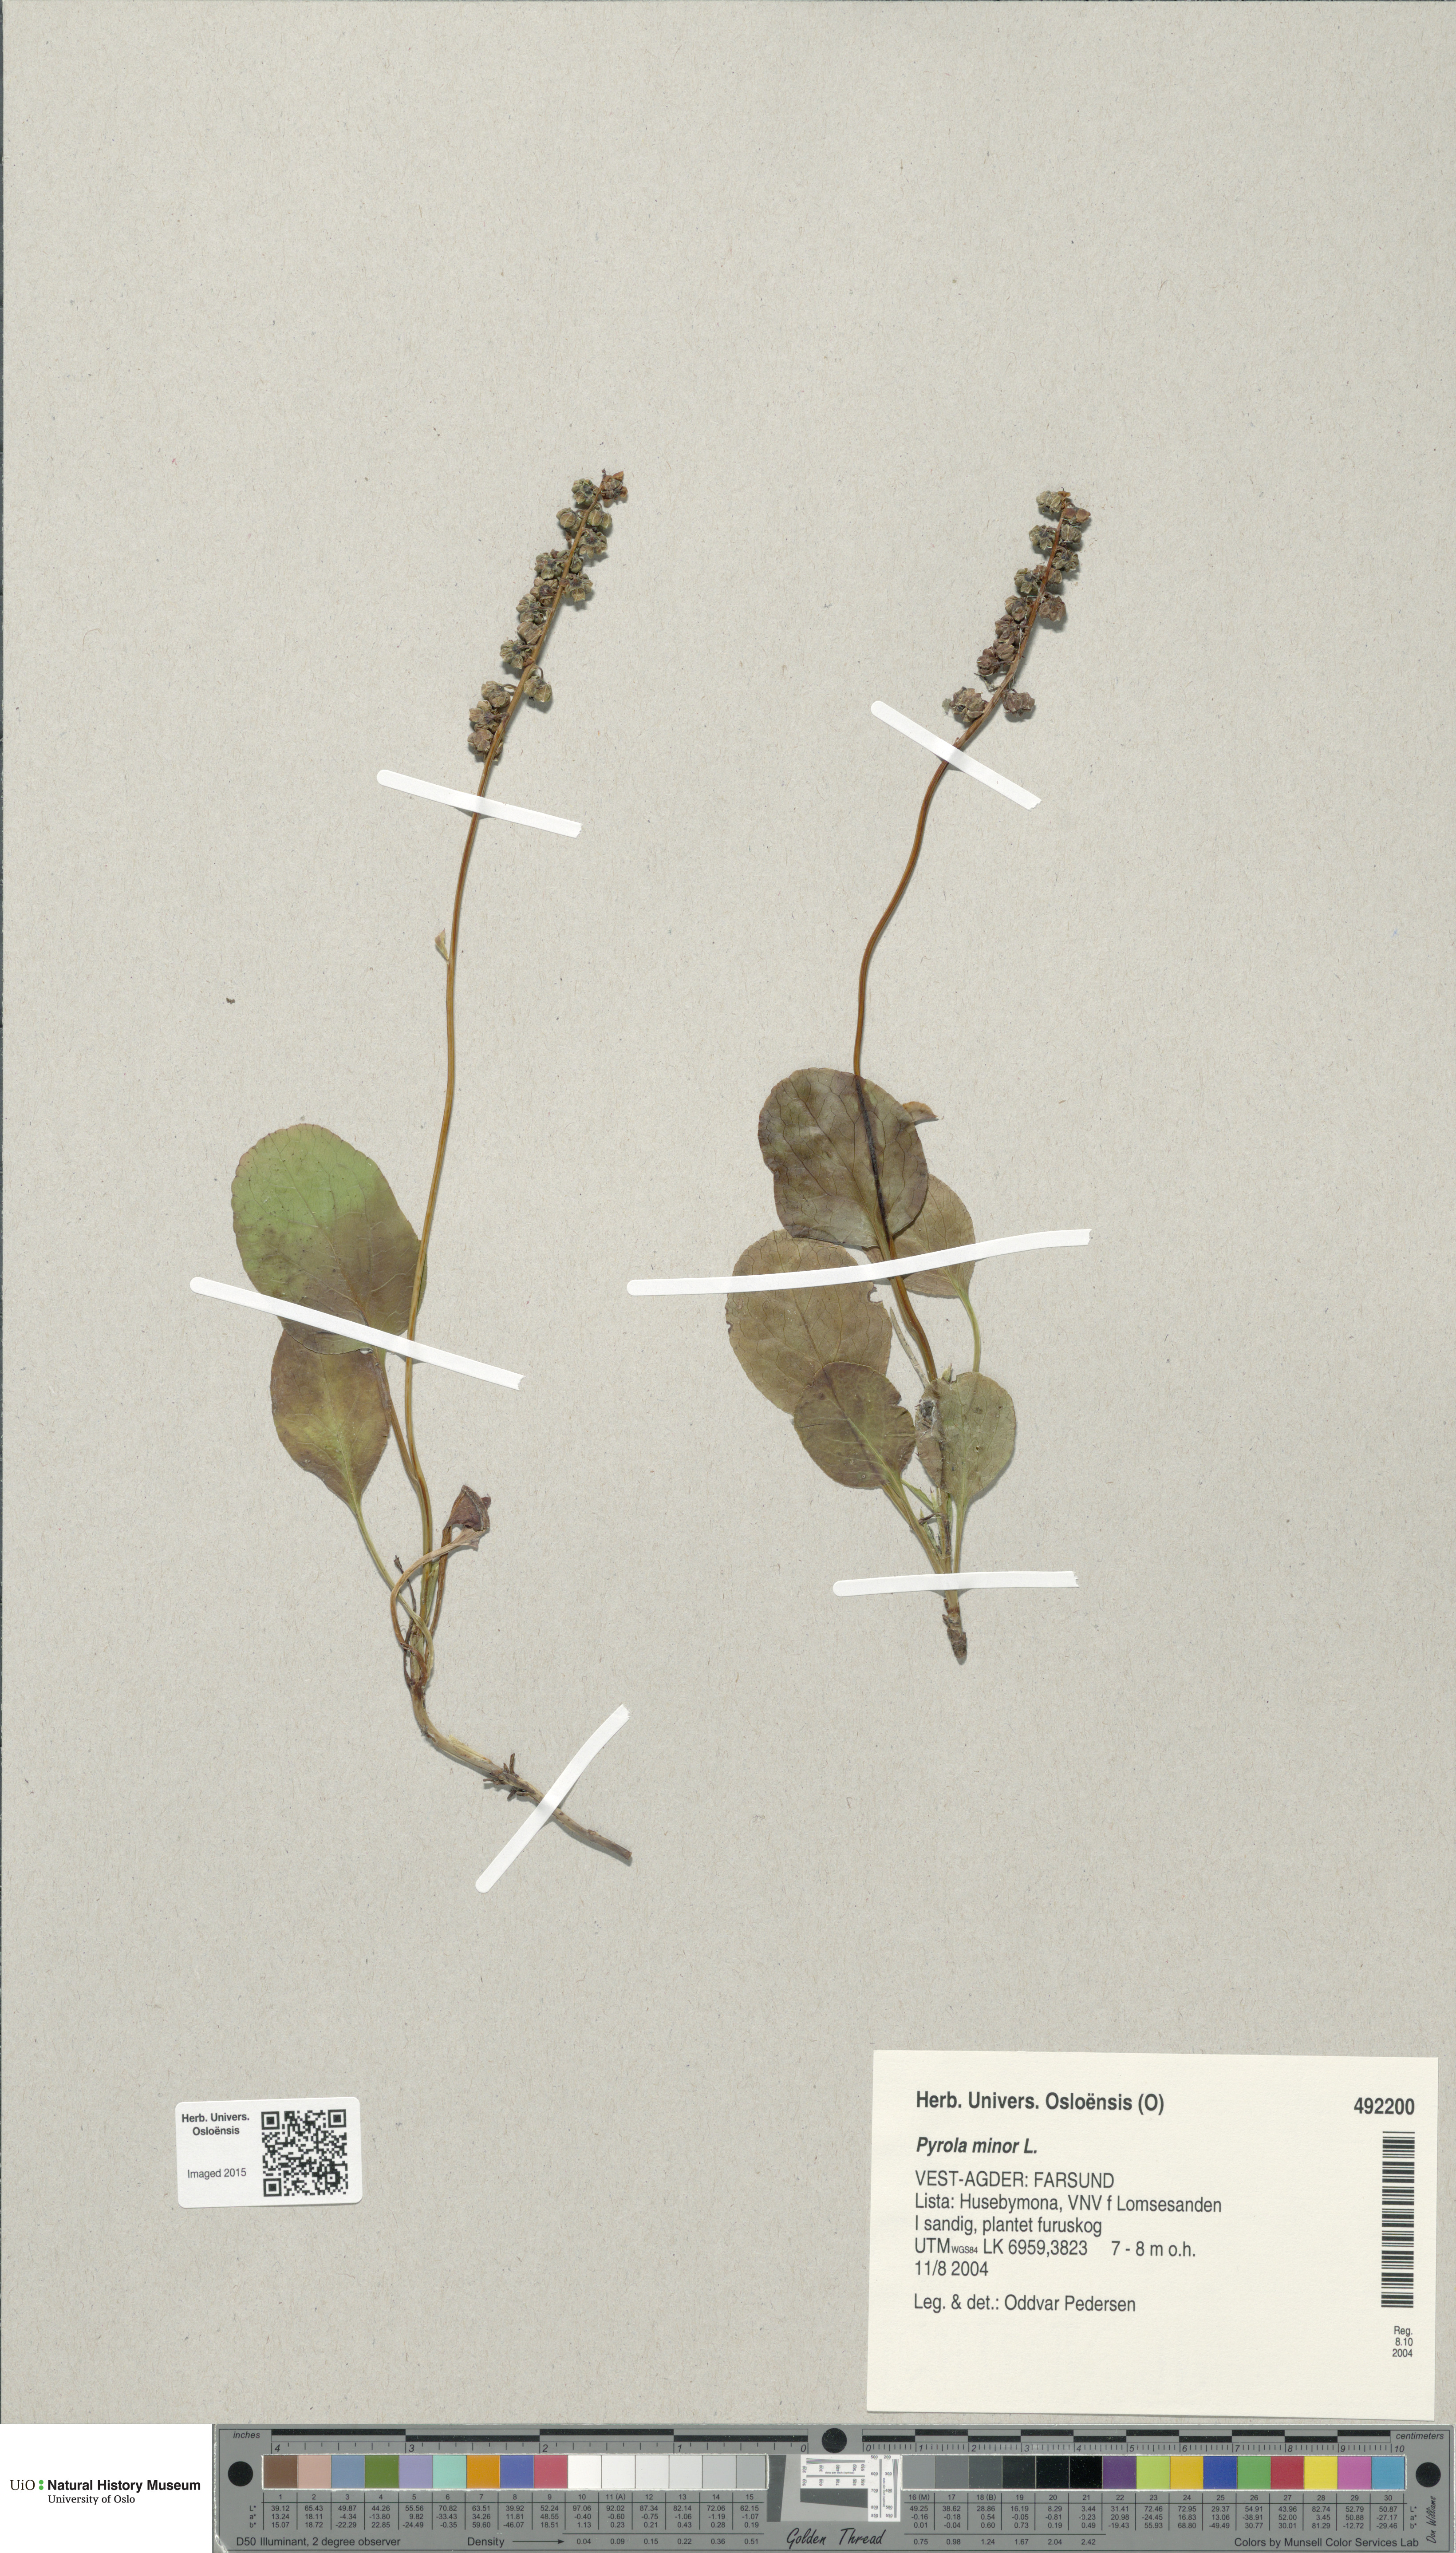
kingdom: Plantae
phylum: Tracheophyta
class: Magnoliopsida
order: Ericales
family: Ericaceae
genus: Pyrola
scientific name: Pyrola minor
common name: Common wintergreen
